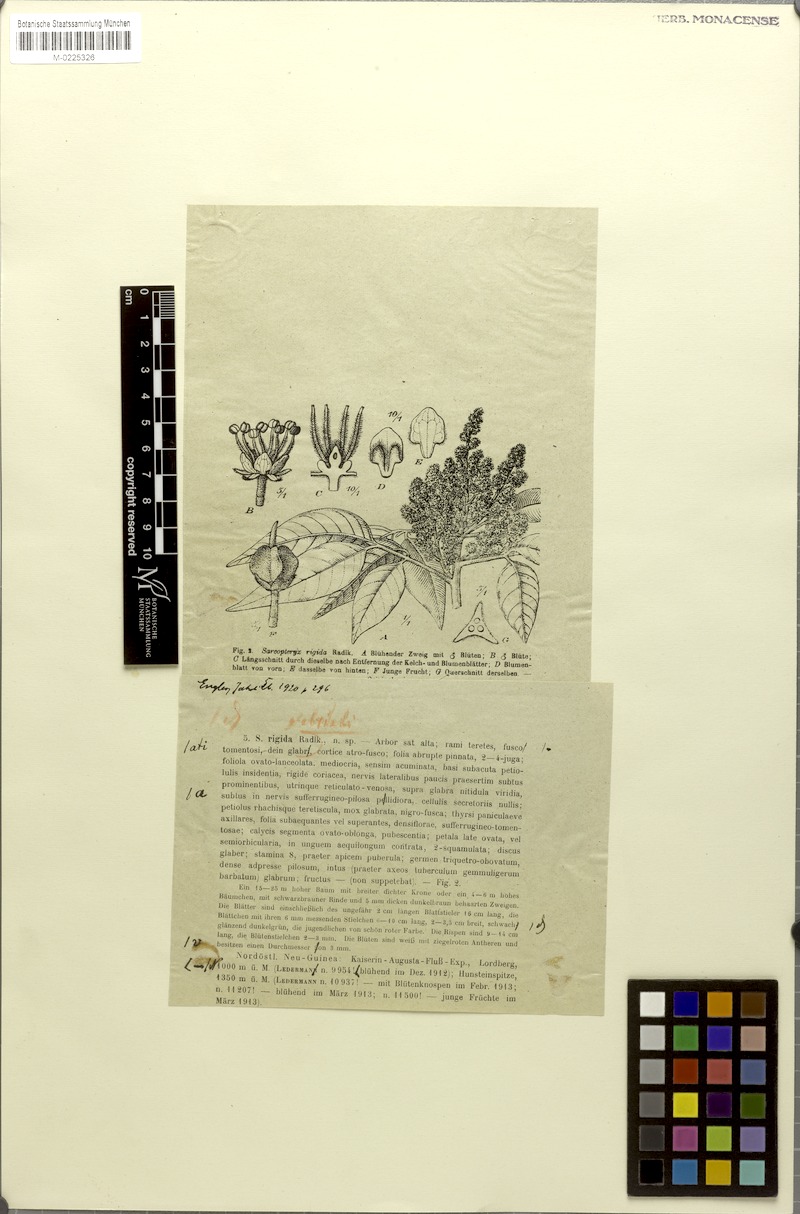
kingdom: Plantae
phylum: Tracheophyta
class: Magnoliopsida
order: Sapindales
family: Sapindaceae
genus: Sarcopteryx
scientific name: Sarcopteryx rigida
